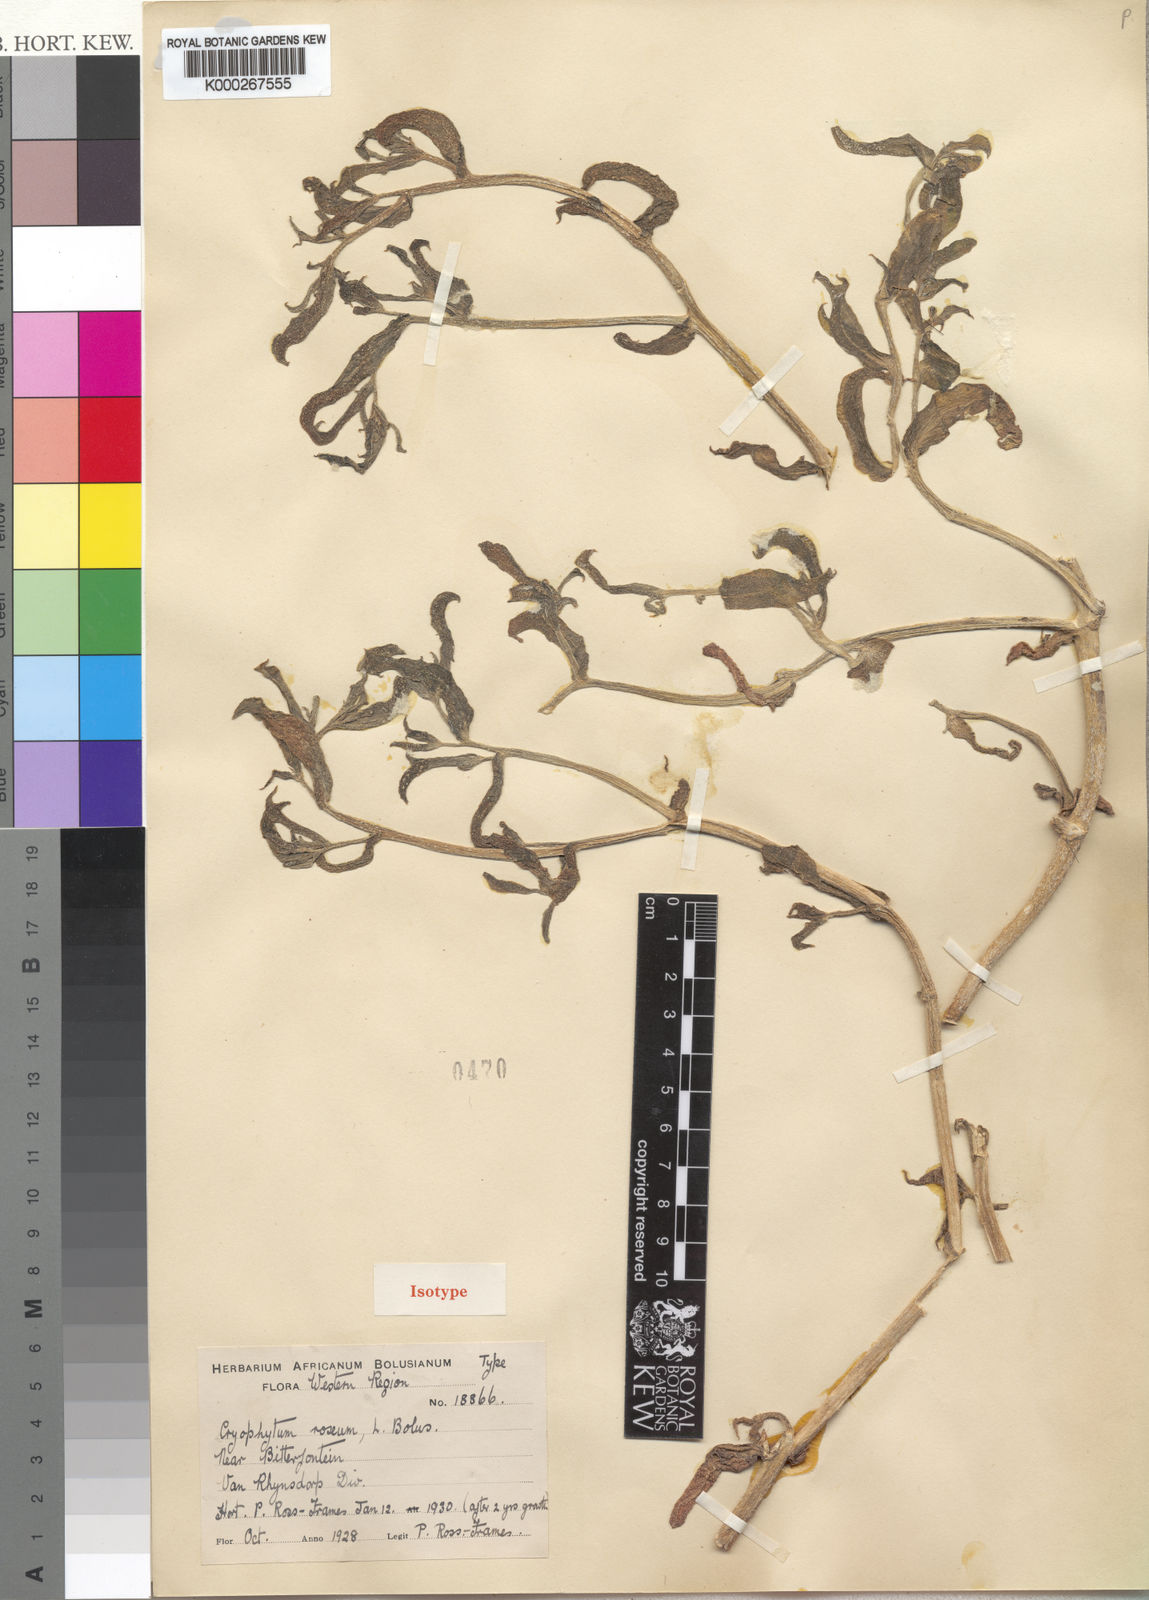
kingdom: Plantae
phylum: Tracheophyta
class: Magnoliopsida
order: Caryophyllales
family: Aizoaceae
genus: Mesembryanthemum
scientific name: Mesembryanthemum guerichianum
